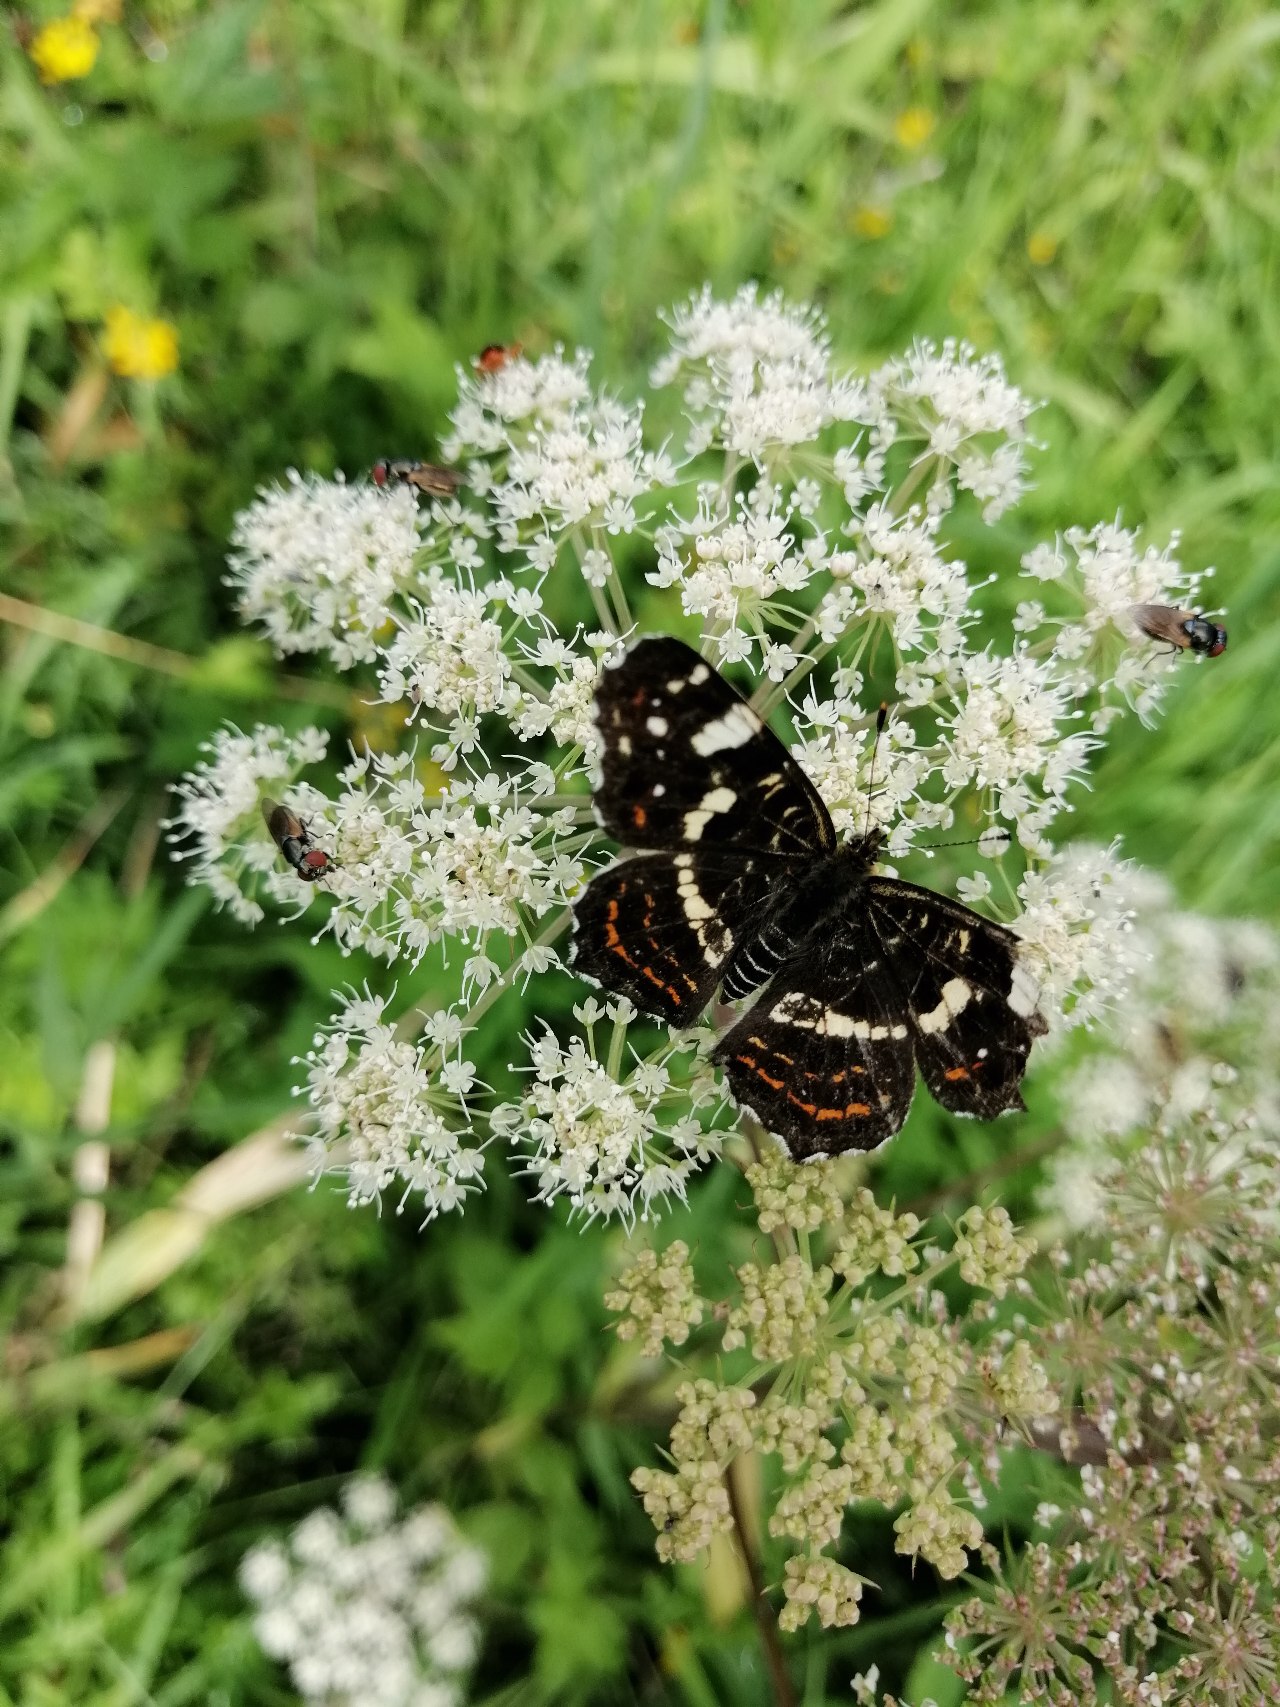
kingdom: Animalia
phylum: Arthropoda
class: Insecta
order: Lepidoptera
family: Nymphalidae
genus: Araschnia
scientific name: Araschnia levana
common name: Nældesommerfugl
